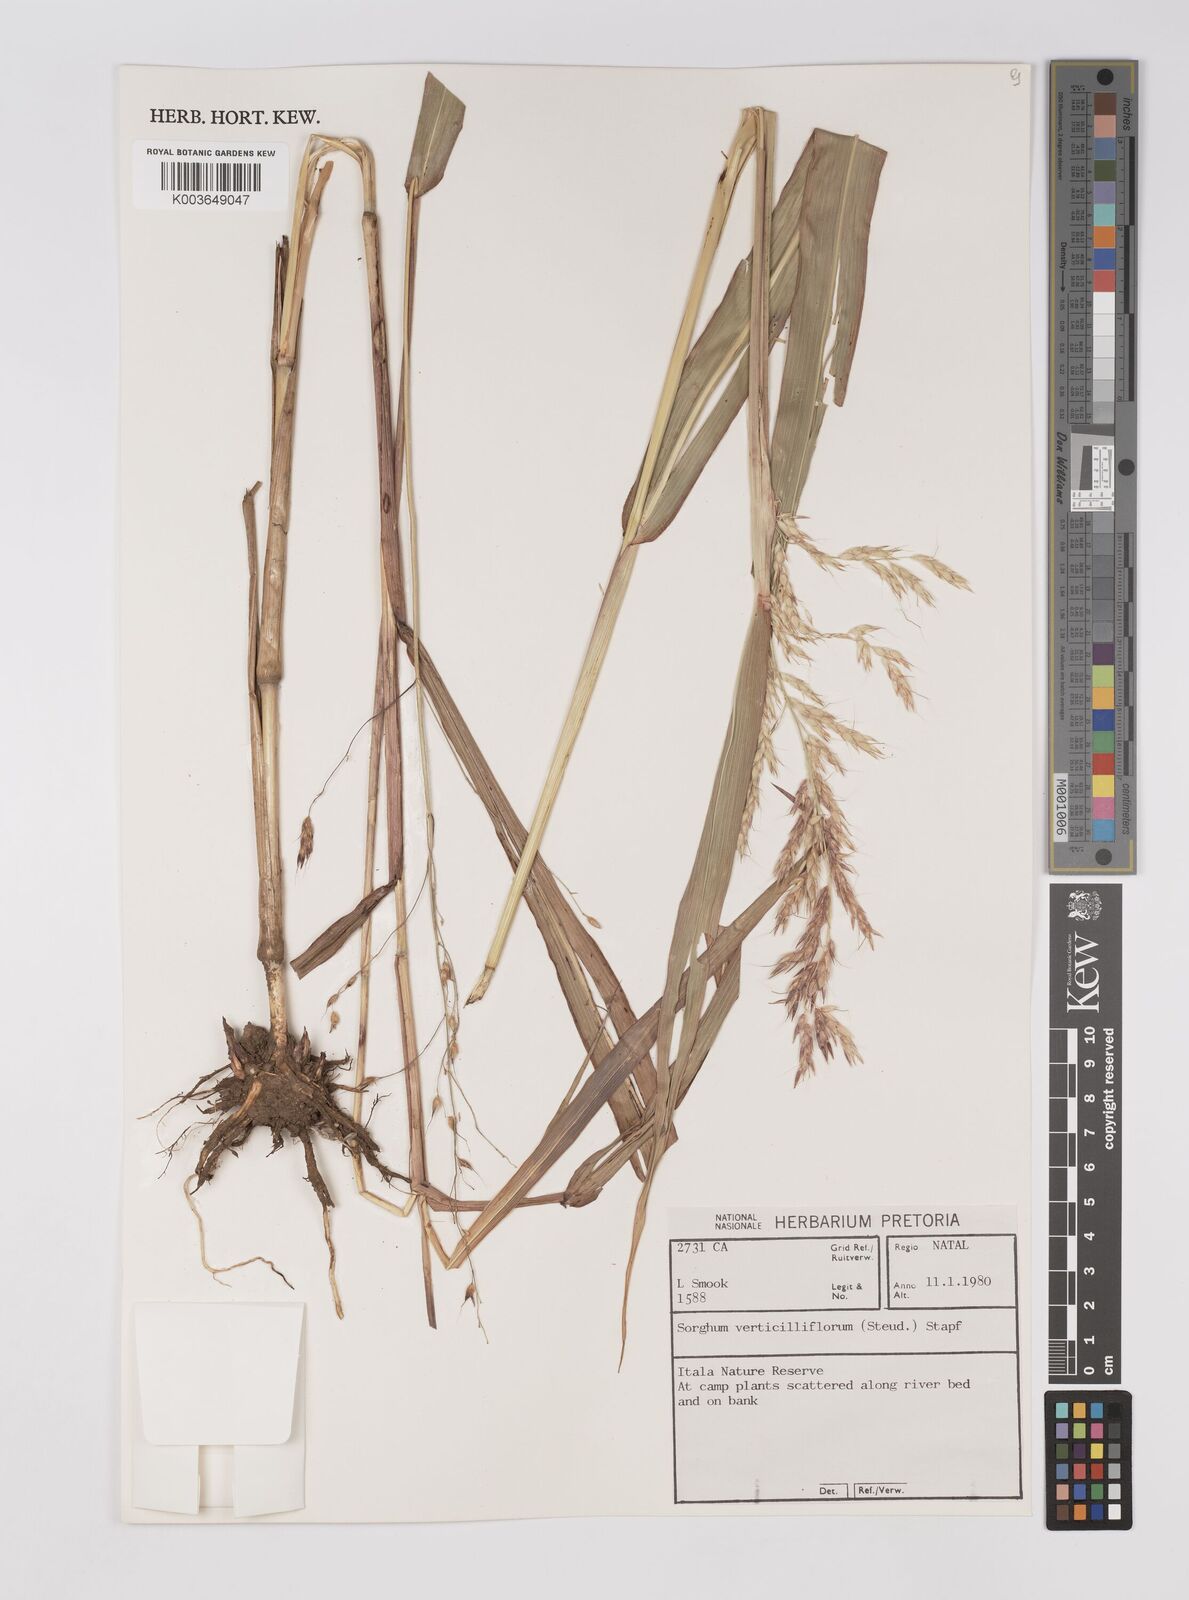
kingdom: Plantae
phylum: Tracheophyta
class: Liliopsida
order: Poales
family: Poaceae
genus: Sorghum
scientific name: Sorghum arundinaceum
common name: Sorghum
